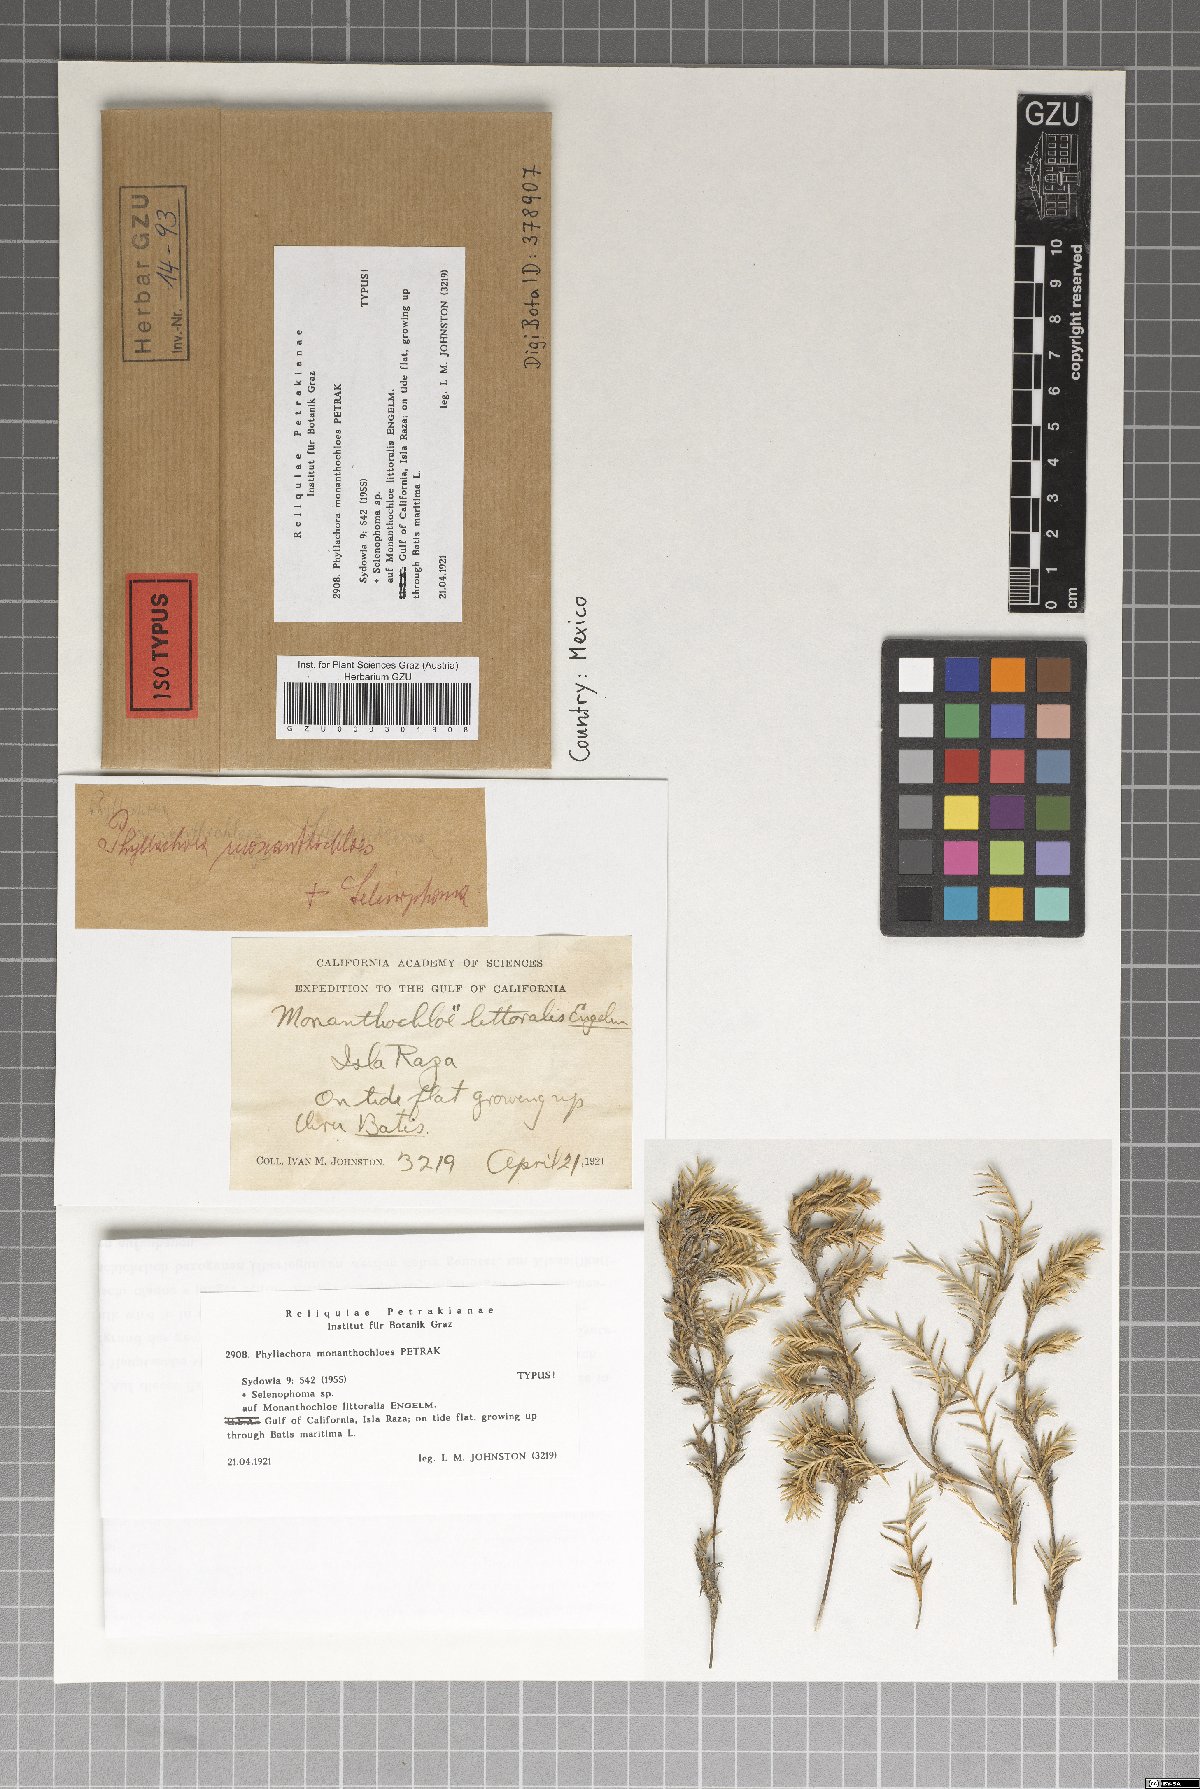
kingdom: Fungi
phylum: Ascomycota
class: Sordariomycetes
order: Phyllachorales
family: Phyllachoraceae
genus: Phyllachora
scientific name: Phyllachora monanthochloes
